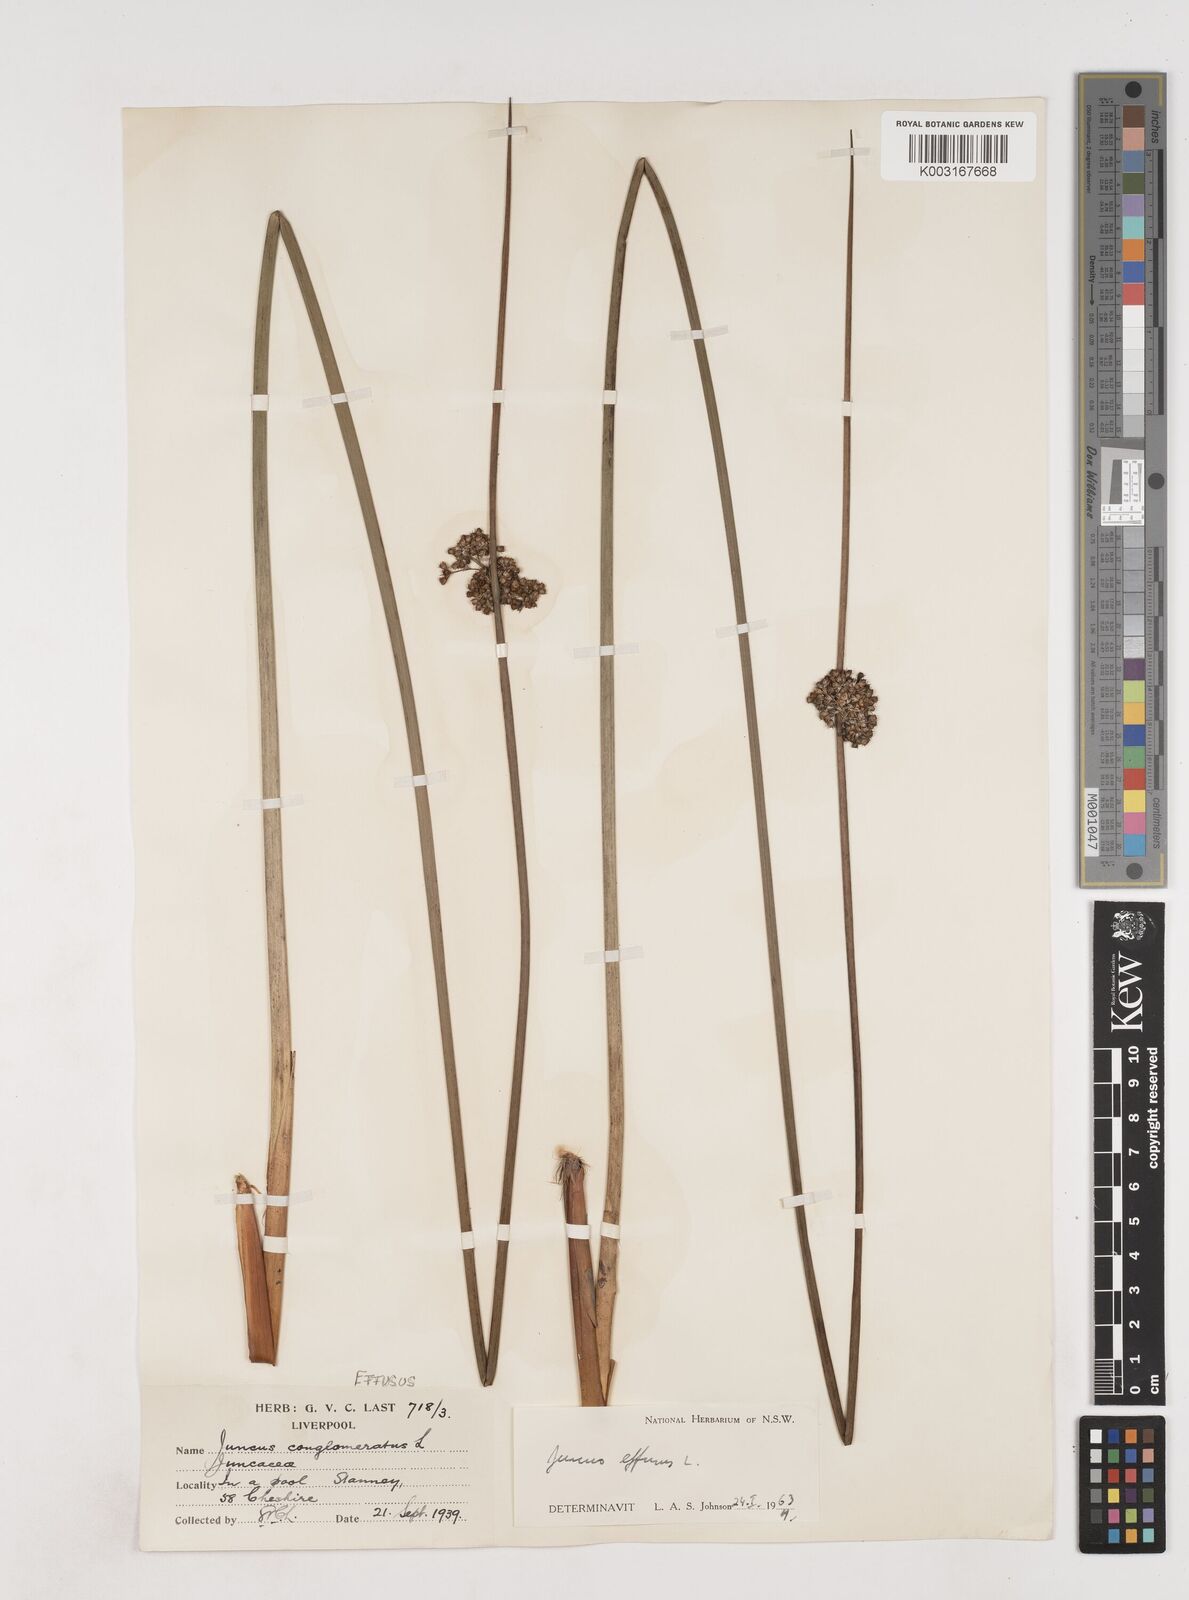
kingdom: Plantae
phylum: Tracheophyta
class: Liliopsida
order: Poales
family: Juncaceae
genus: Juncus
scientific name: Juncus effusus
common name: Soft rush
